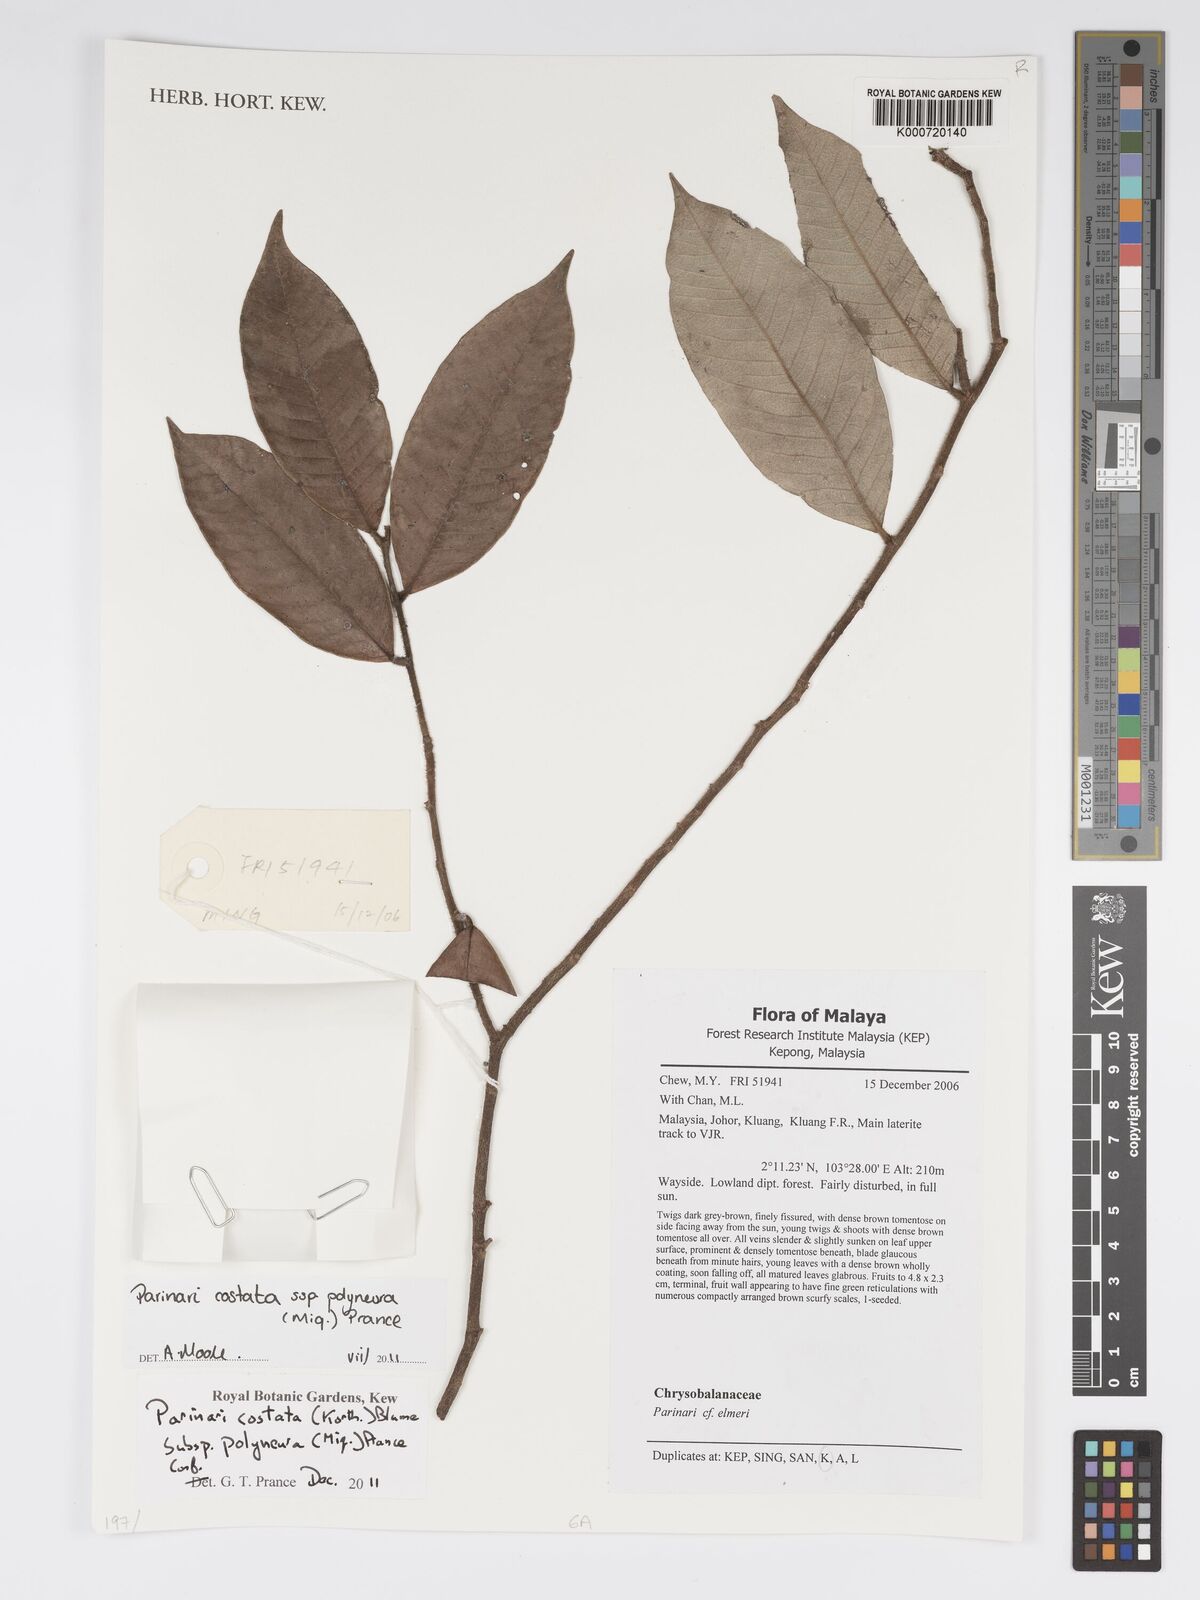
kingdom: Plantae
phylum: Tracheophyta
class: Magnoliopsida
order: Malpighiales
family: Chrysobalanaceae
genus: Parinari
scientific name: Parinari costata
